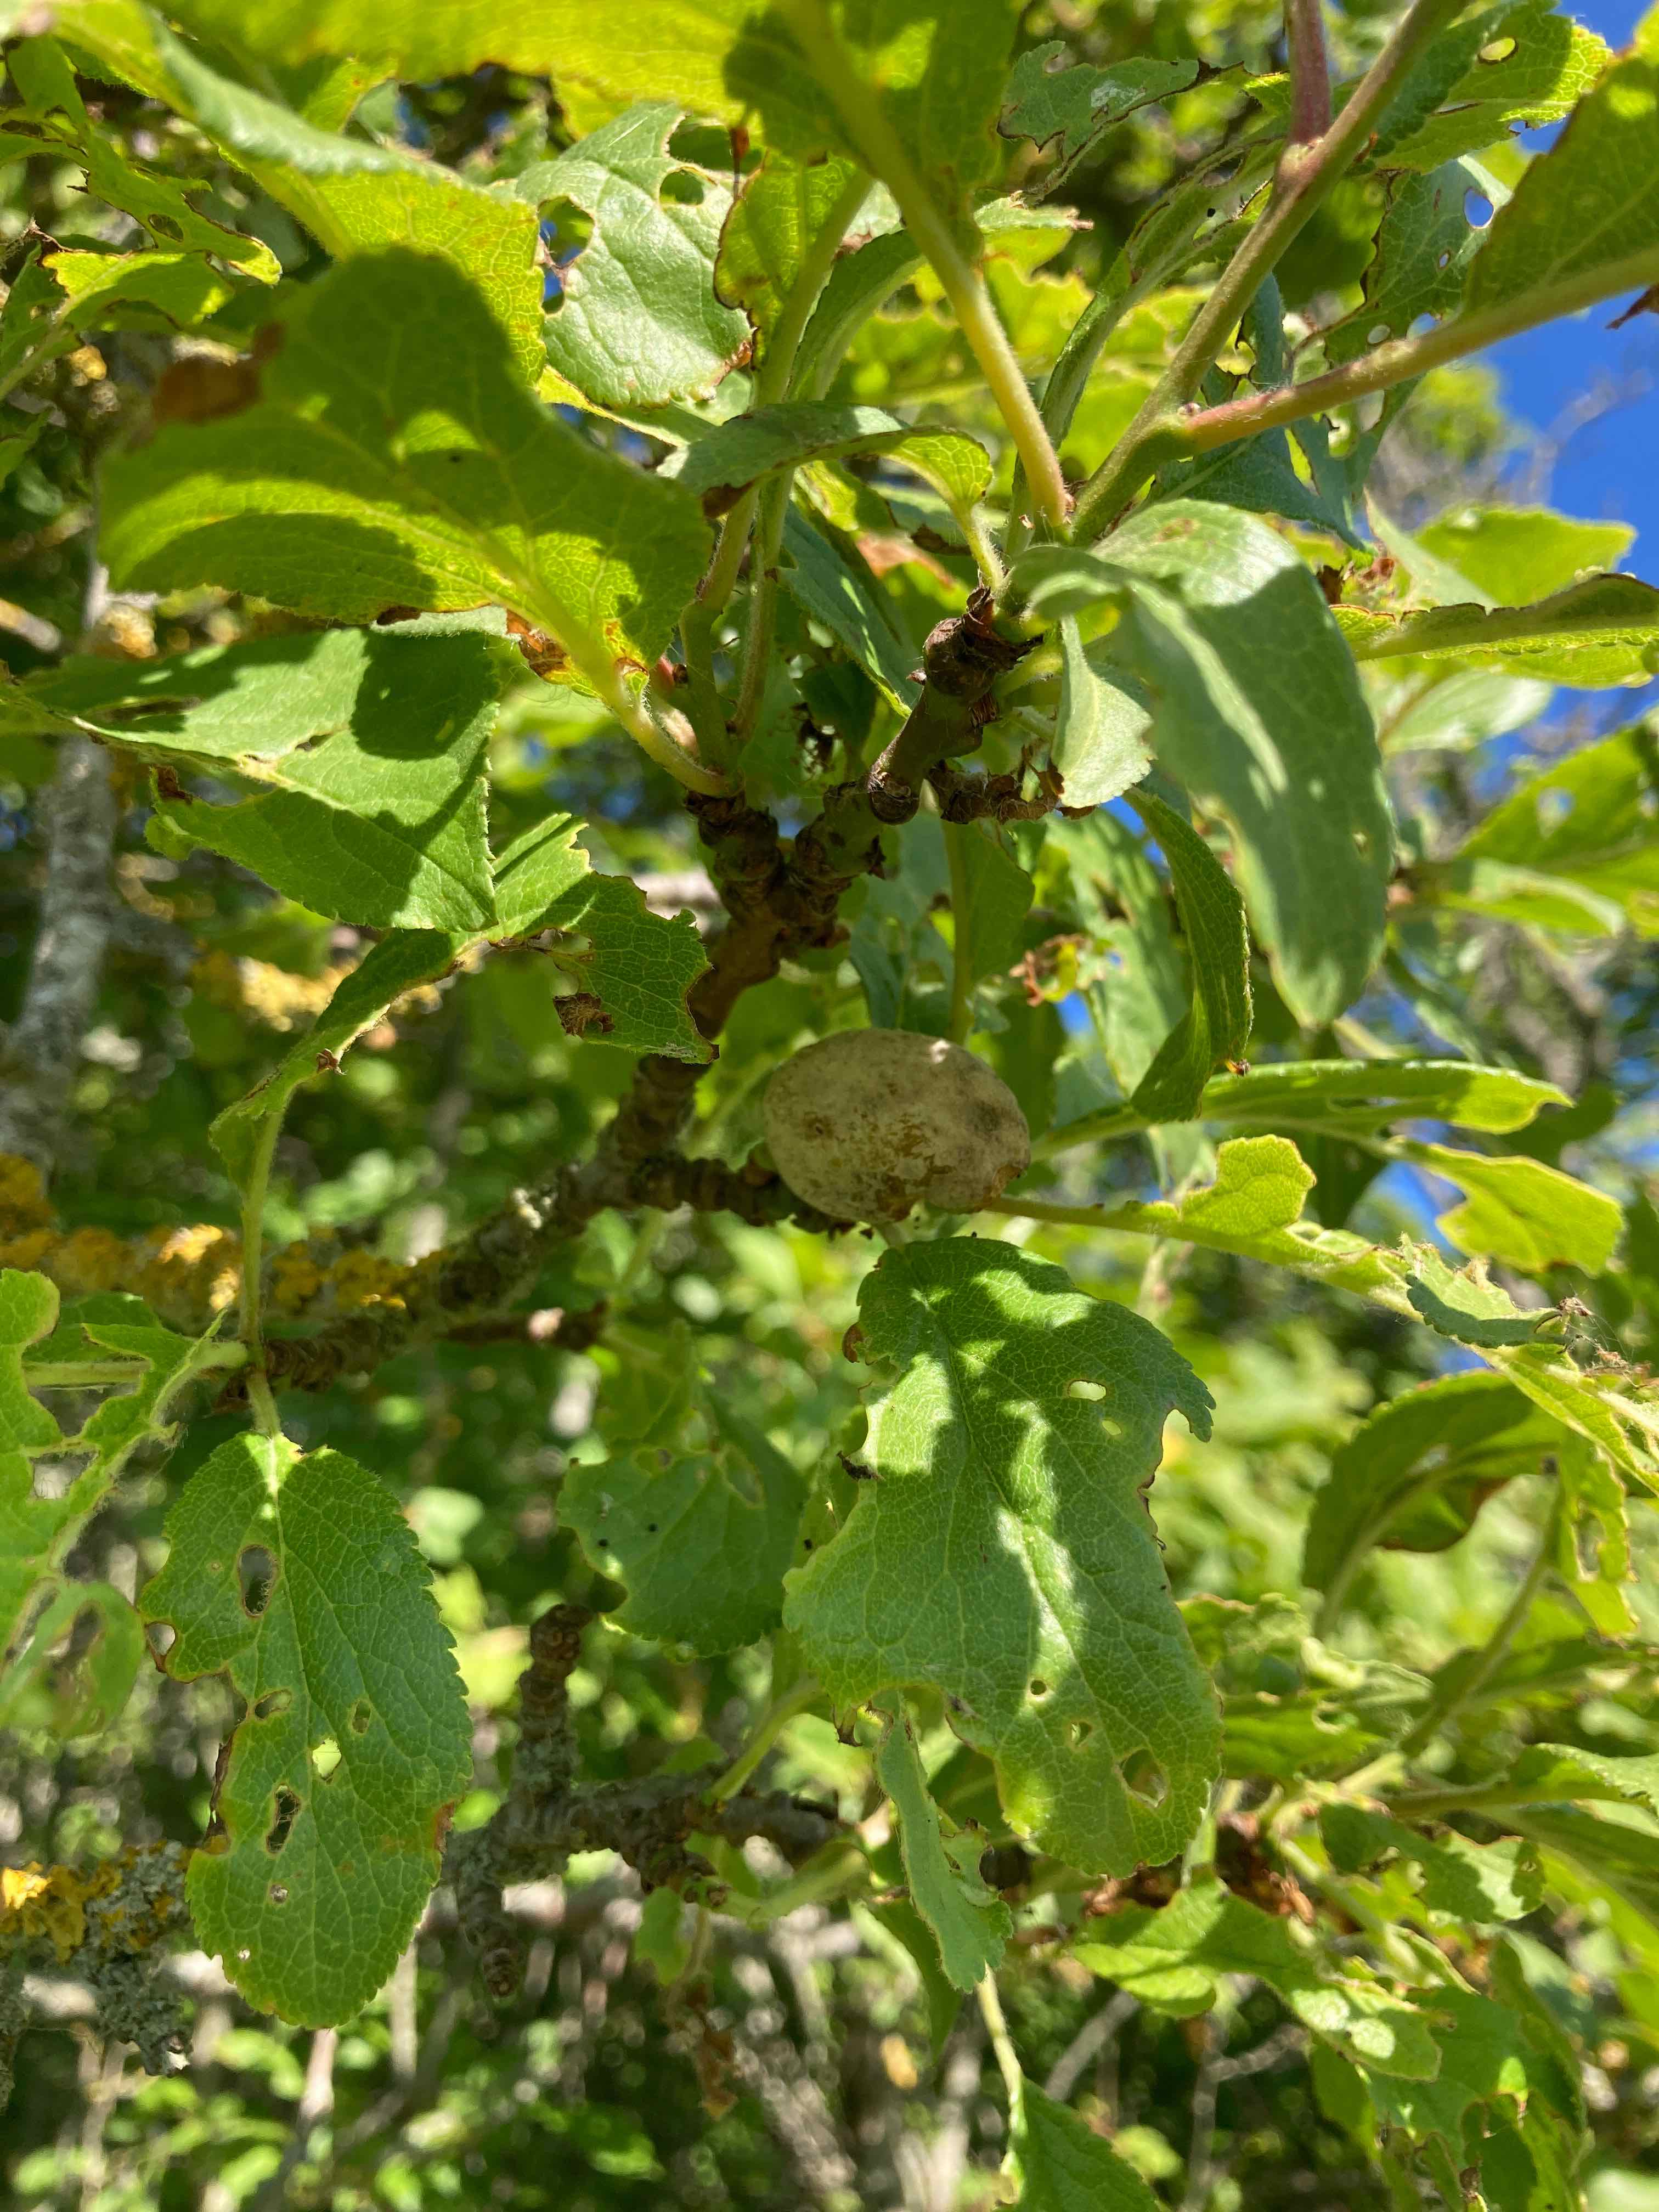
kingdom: Fungi
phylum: Ascomycota
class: Taphrinomycetes
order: Taphrinales
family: Taphrinaceae
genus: Taphrina
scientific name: Taphrina pruni
